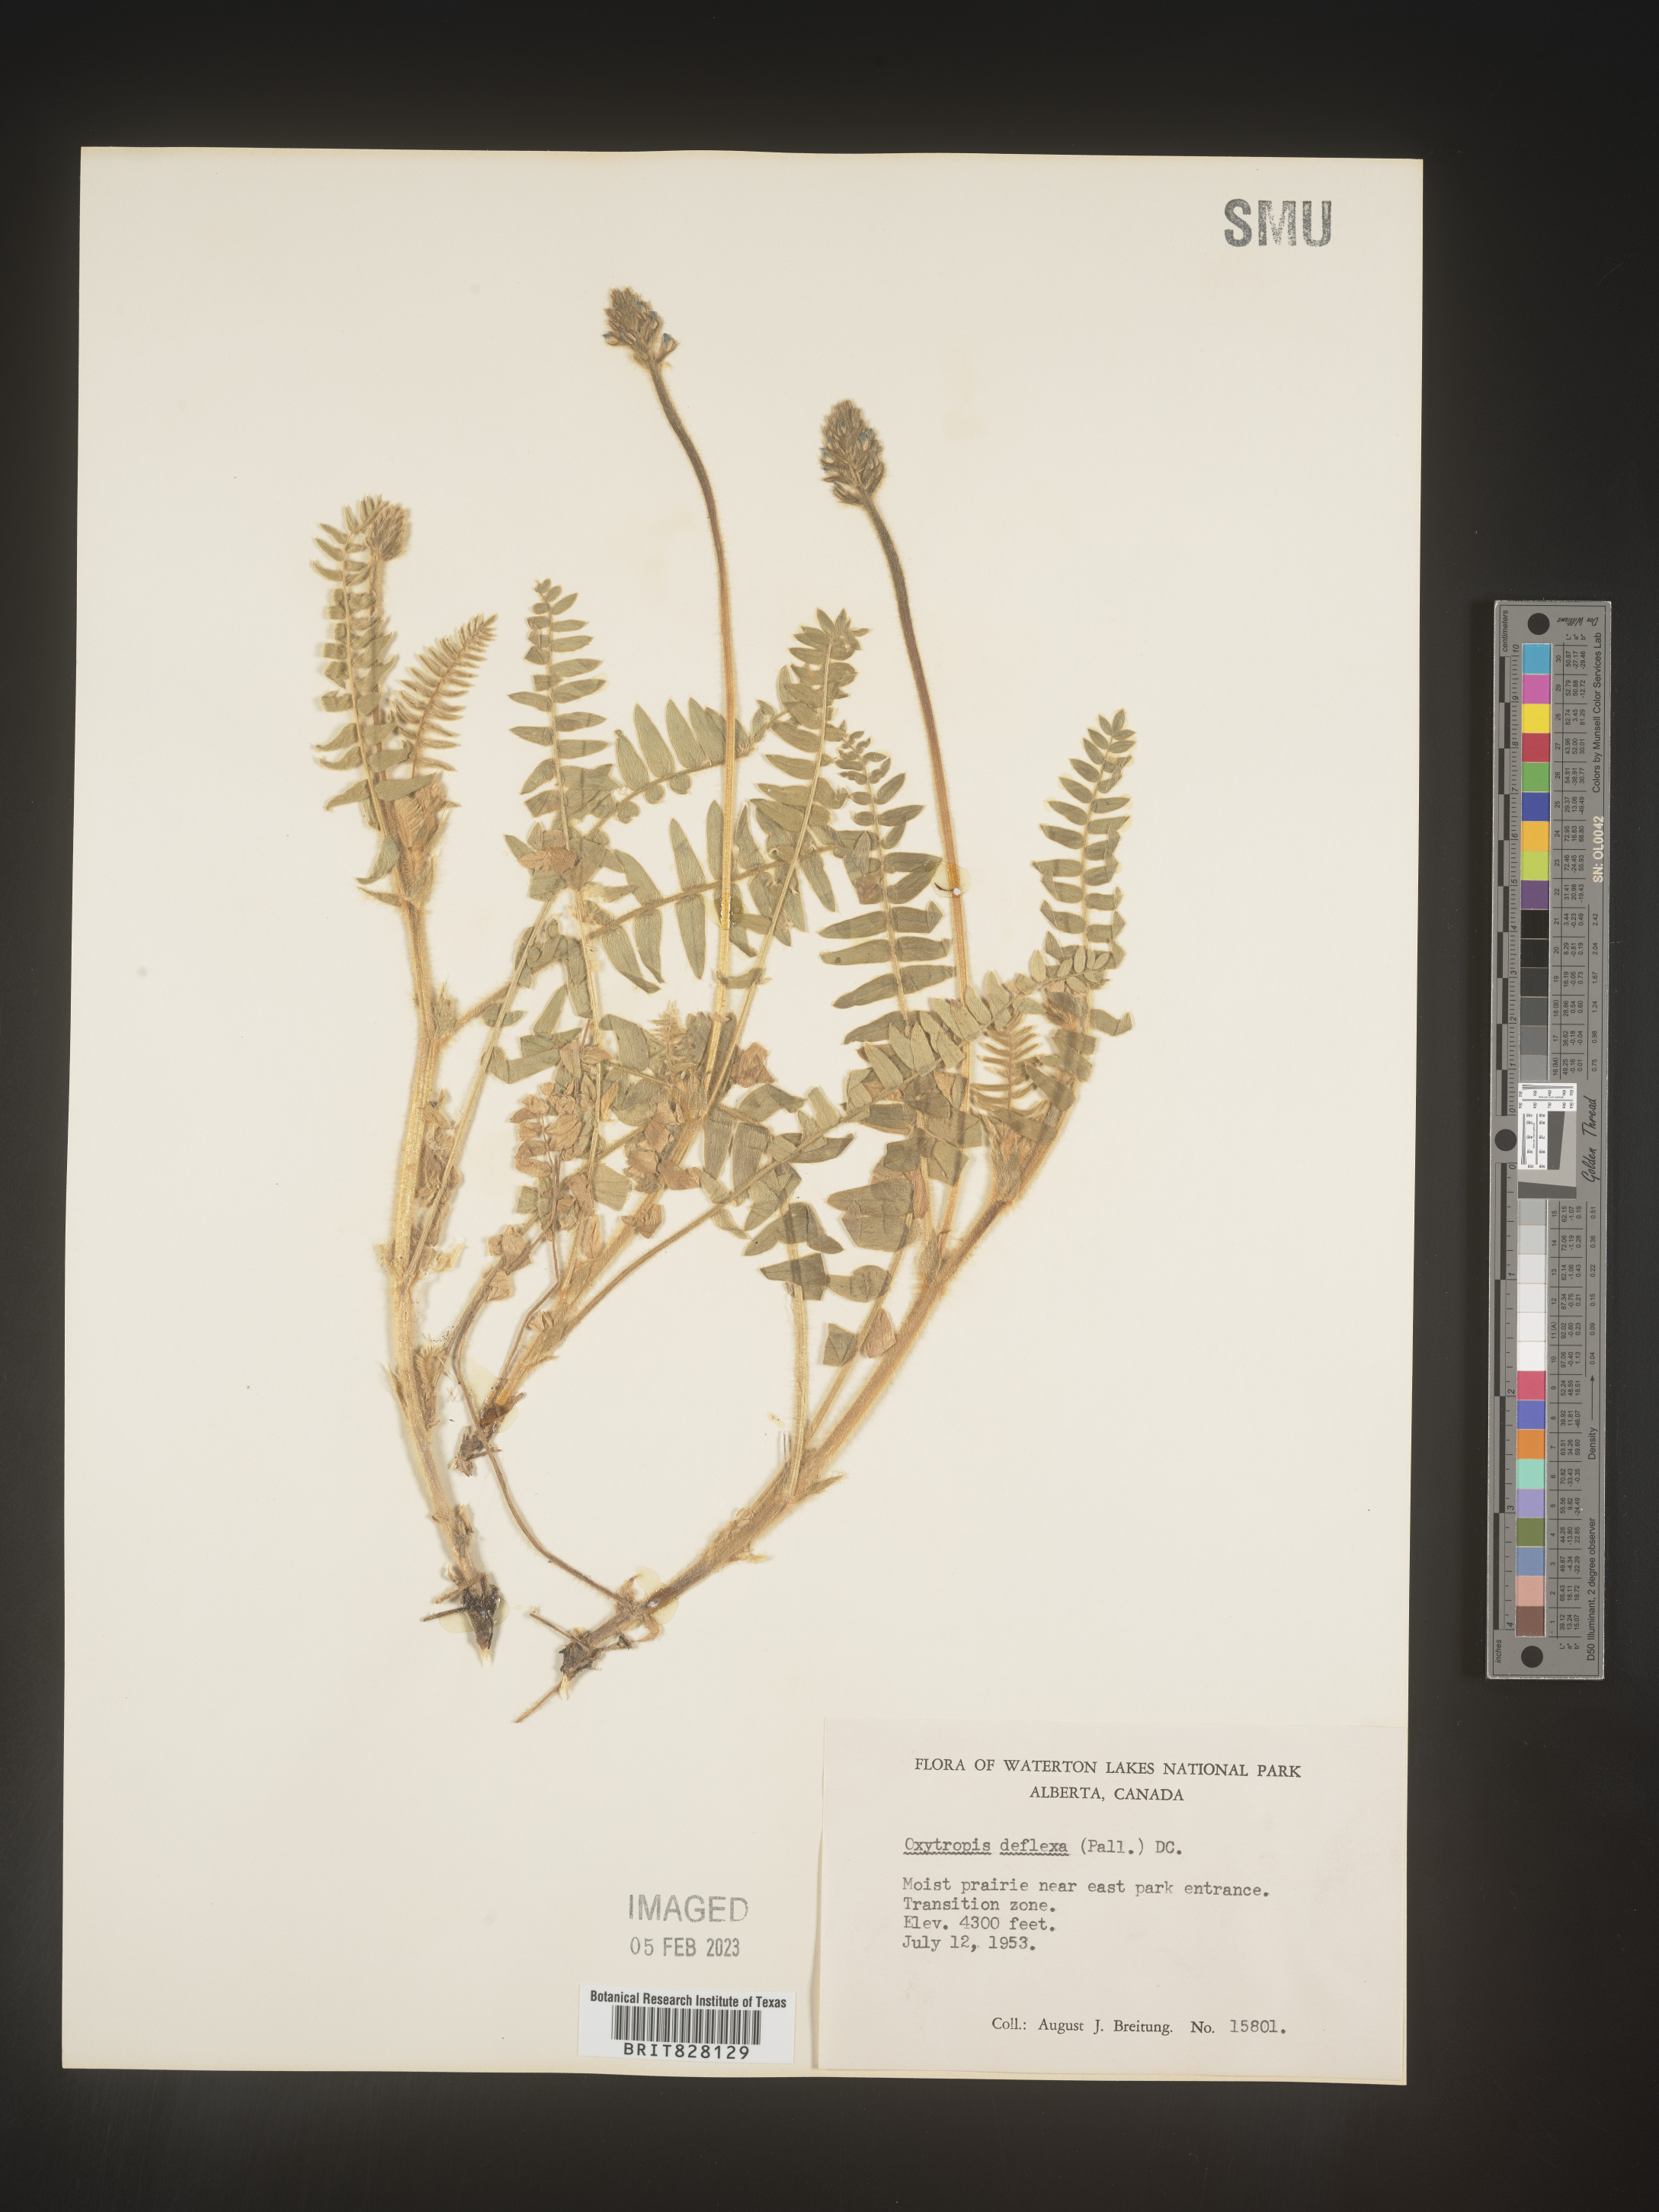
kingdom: Plantae
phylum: Tracheophyta
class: Magnoliopsida
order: Fabales
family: Fabaceae
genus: Oxytropis
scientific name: Oxytropis
